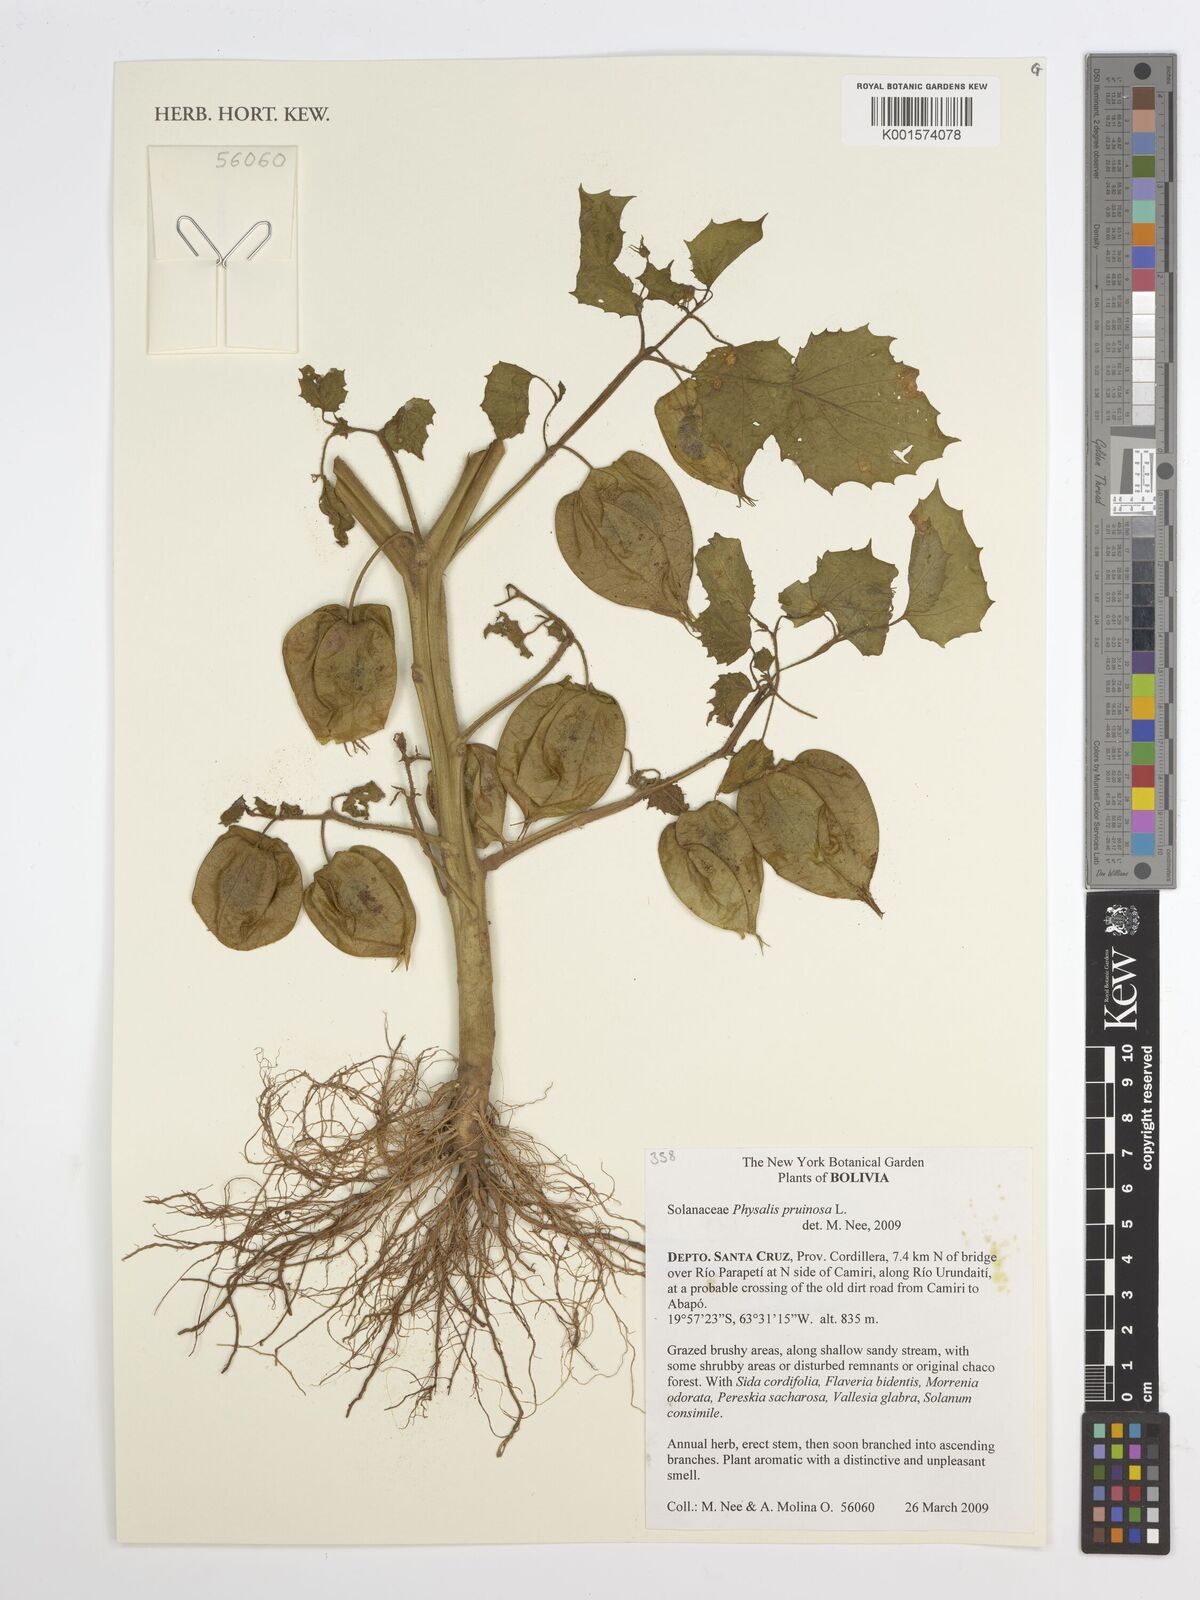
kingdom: Plantae
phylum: Tracheophyta
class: Magnoliopsida
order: Solanales
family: Solanaceae
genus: Physalis
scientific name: Physalis pruinosa
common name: Strawberry tomato
